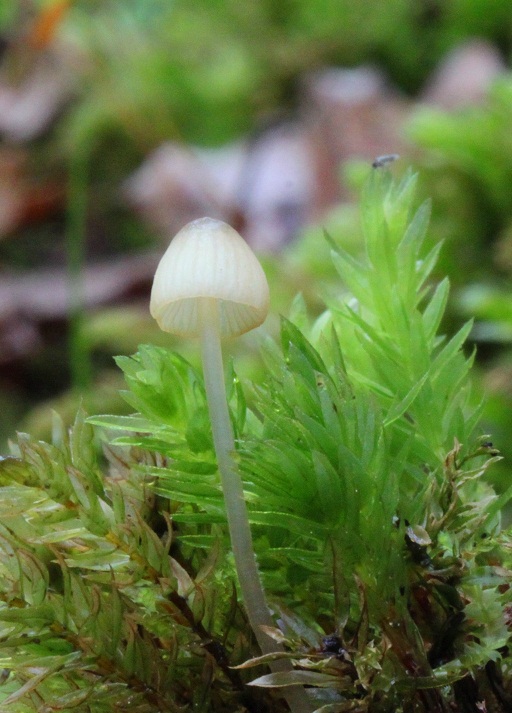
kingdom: Fungi
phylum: Basidiomycota
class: Agaricomycetes
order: Agaricales
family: Mycenaceae
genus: Mycena
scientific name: Mycena citrinomarginata
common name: gulægget huesvamp
